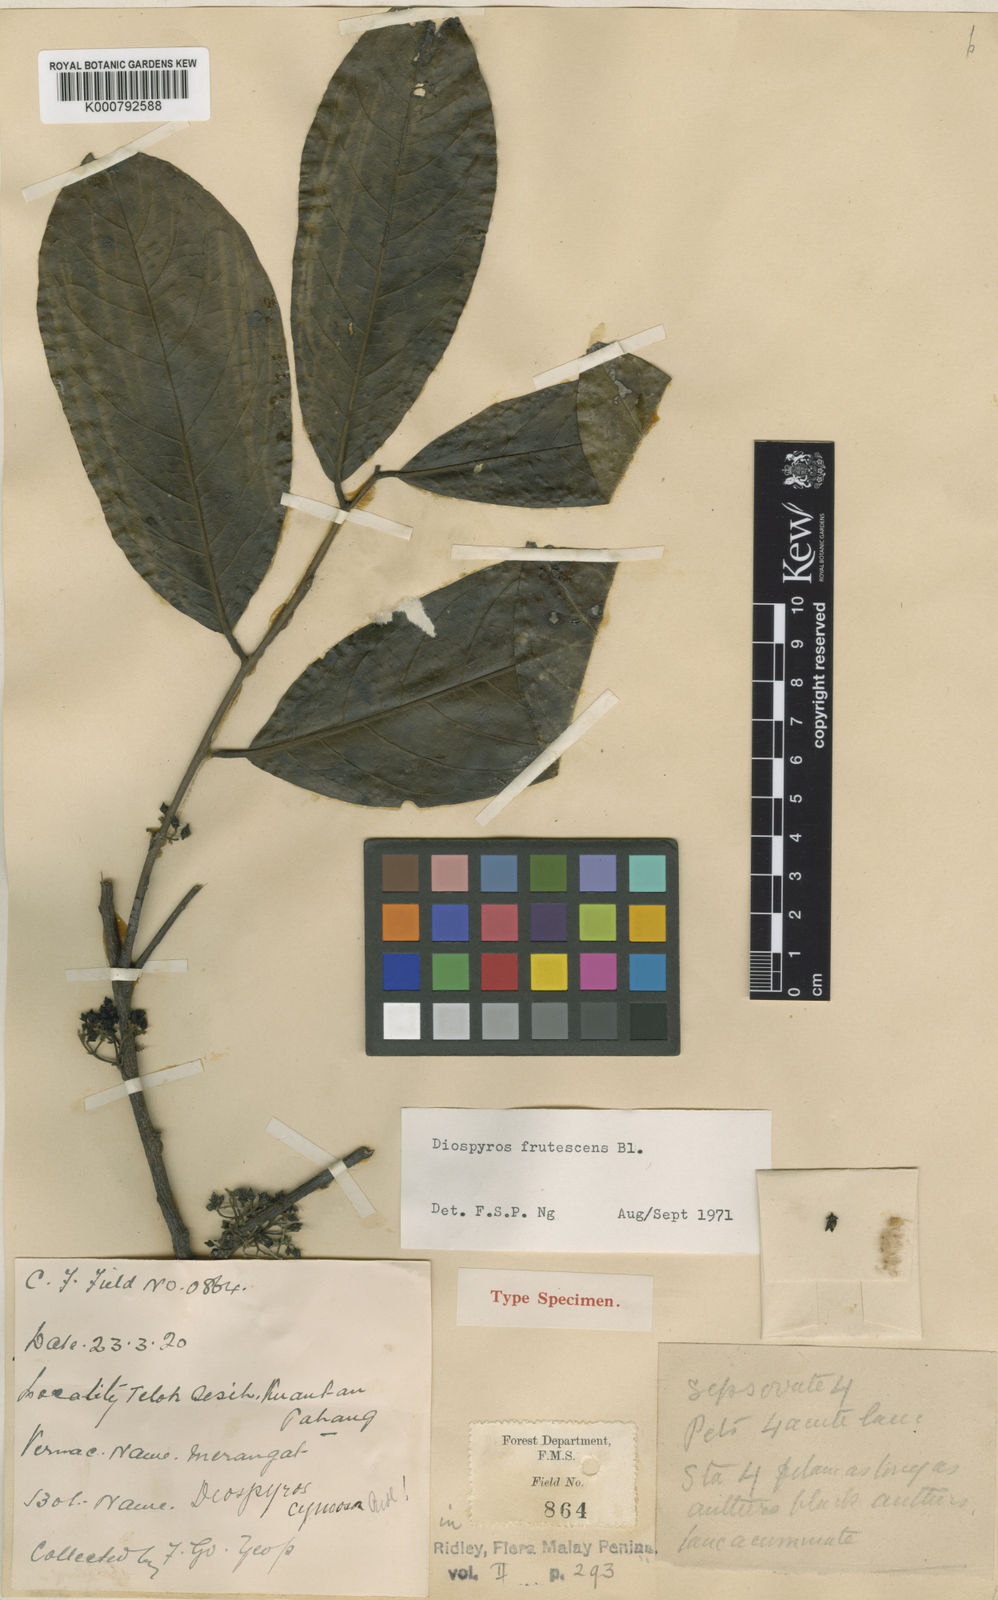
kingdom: Plantae
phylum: Tracheophyta
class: Magnoliopsida
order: Ericales
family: Ebenaceae
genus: Diospyros
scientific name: Diospyros frutescens
